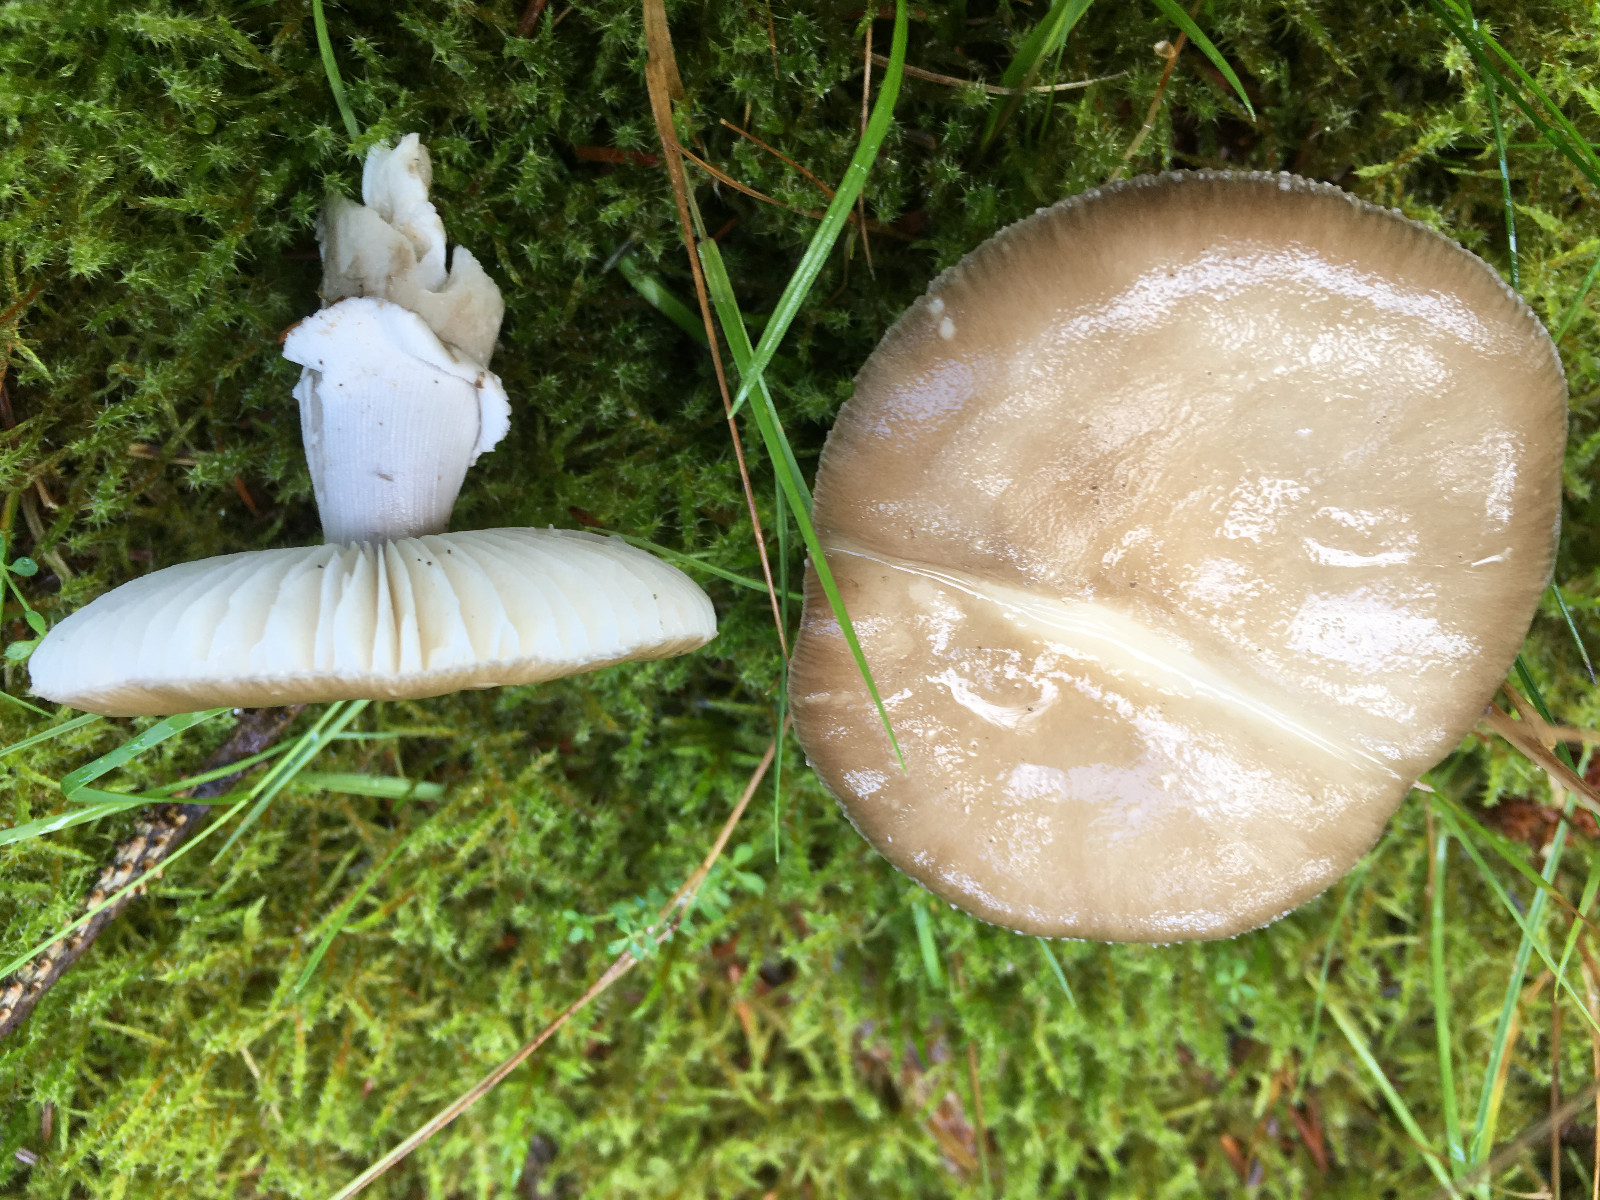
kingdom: Fungi
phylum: Basidiomycota
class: Agaricomycetes
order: Agaricales
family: Amanitaceae
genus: Amanita
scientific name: Amanita
